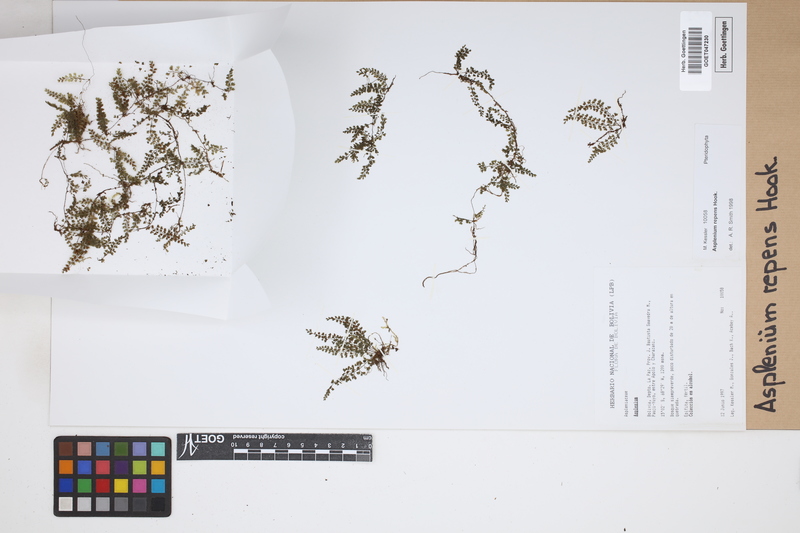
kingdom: Plantae
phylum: Tracheophyta
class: Polypodiopsida
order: Polypodiales
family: Aspleniaceae
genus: Asplenium
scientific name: Asplenium repens
